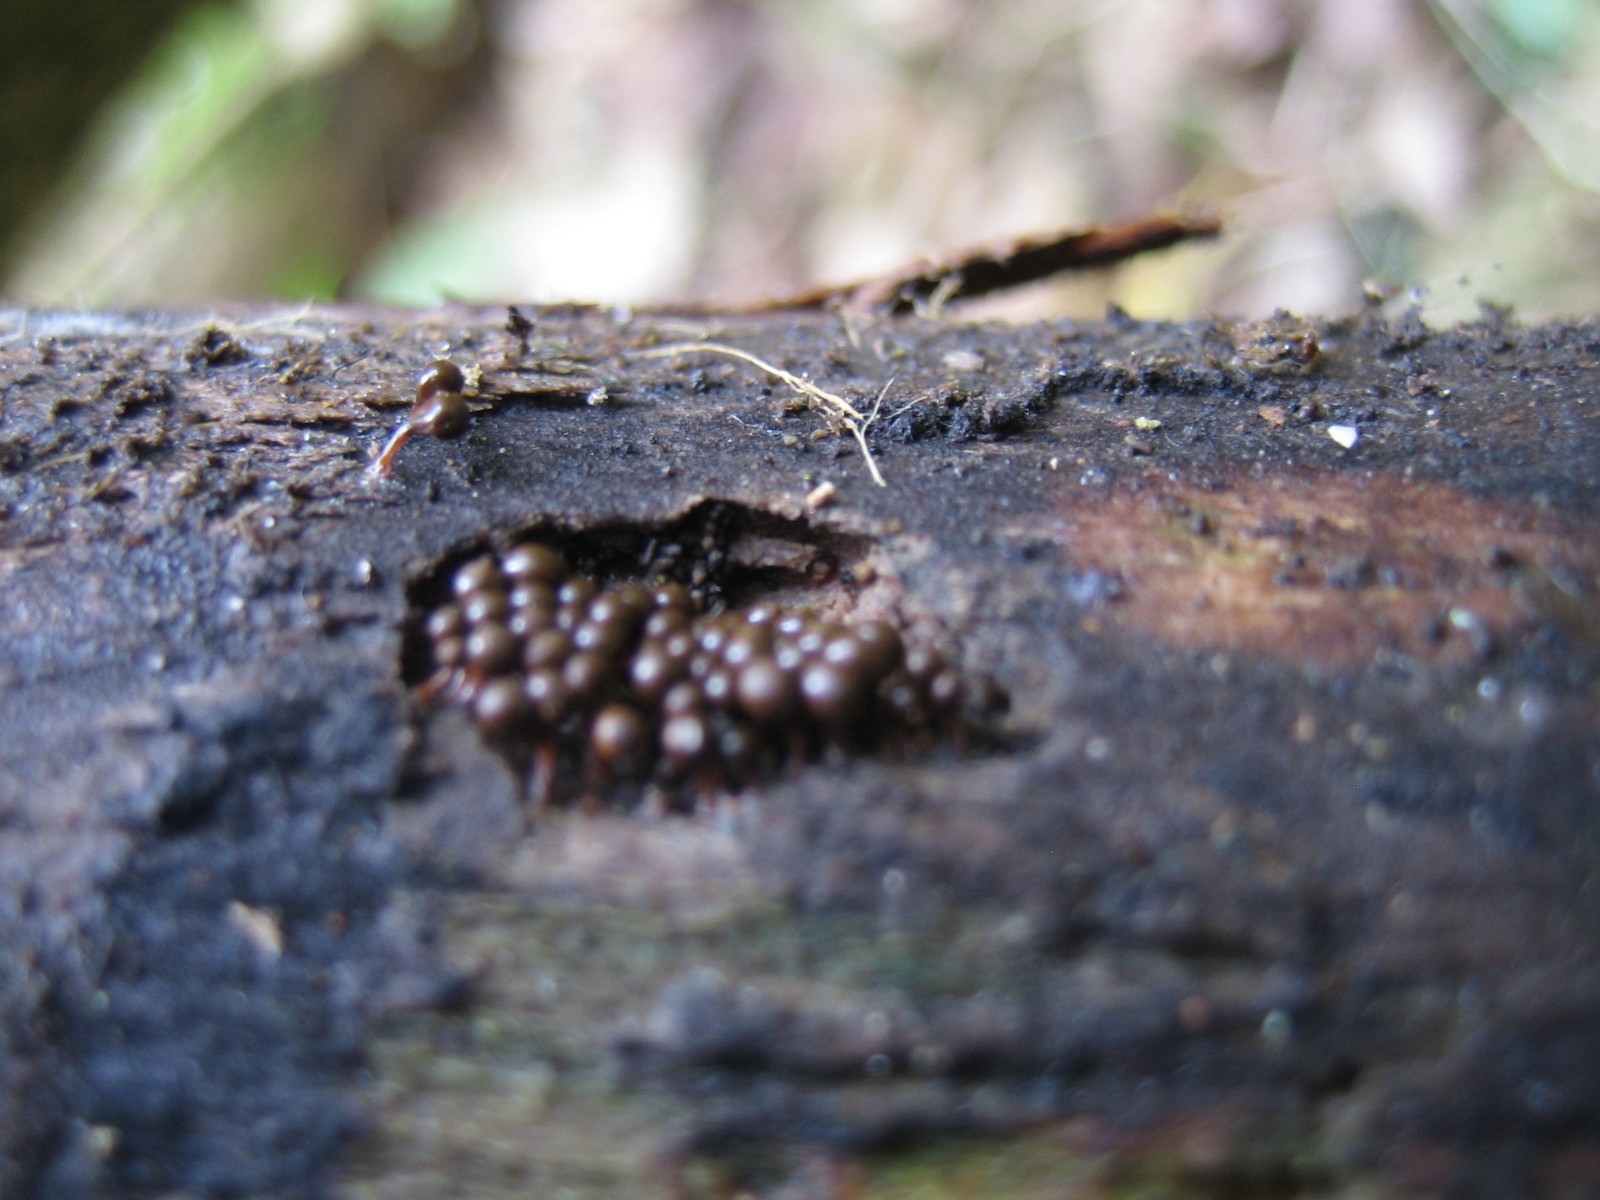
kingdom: Protozoa
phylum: Mycetozoa
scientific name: Mycetozoa
